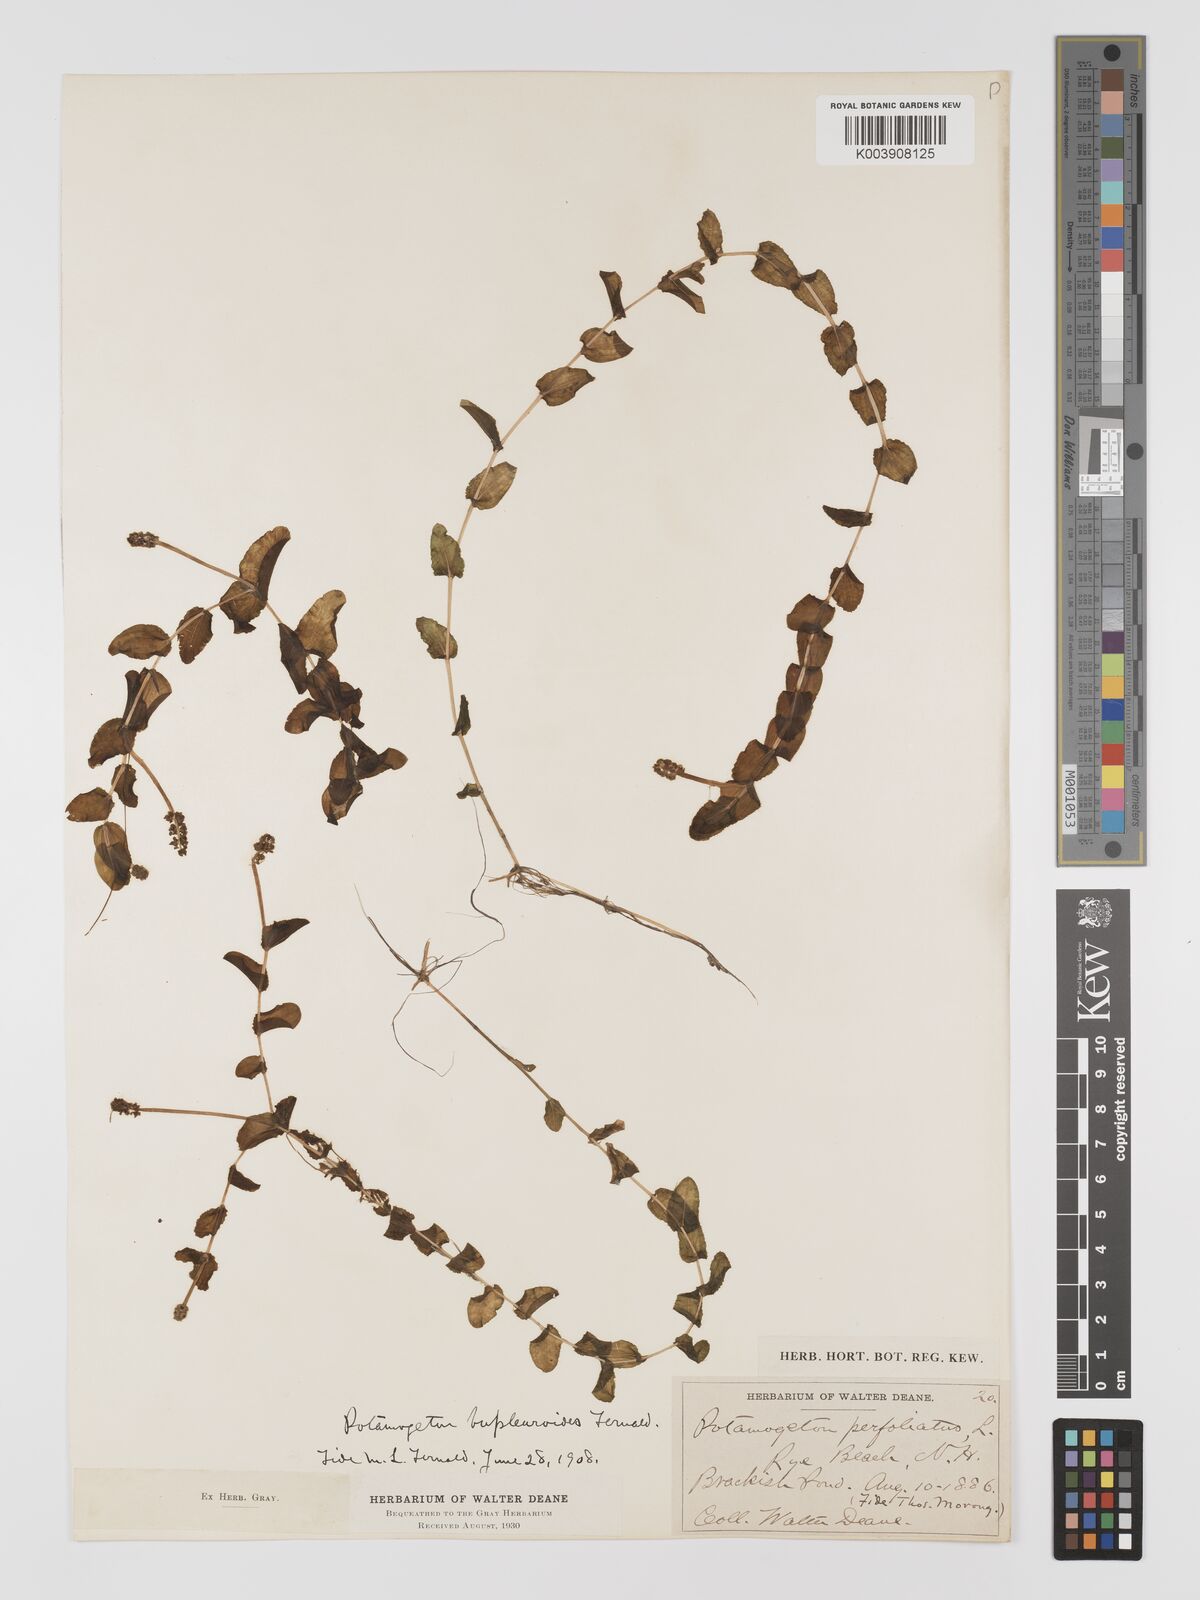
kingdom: Plantae
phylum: Tracheophyta
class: Liliopsida
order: Alismatales
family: Potamogetonaceae
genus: Potamogeton
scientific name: Potamogeton perfoliatus
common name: Perfoliate pondweed
